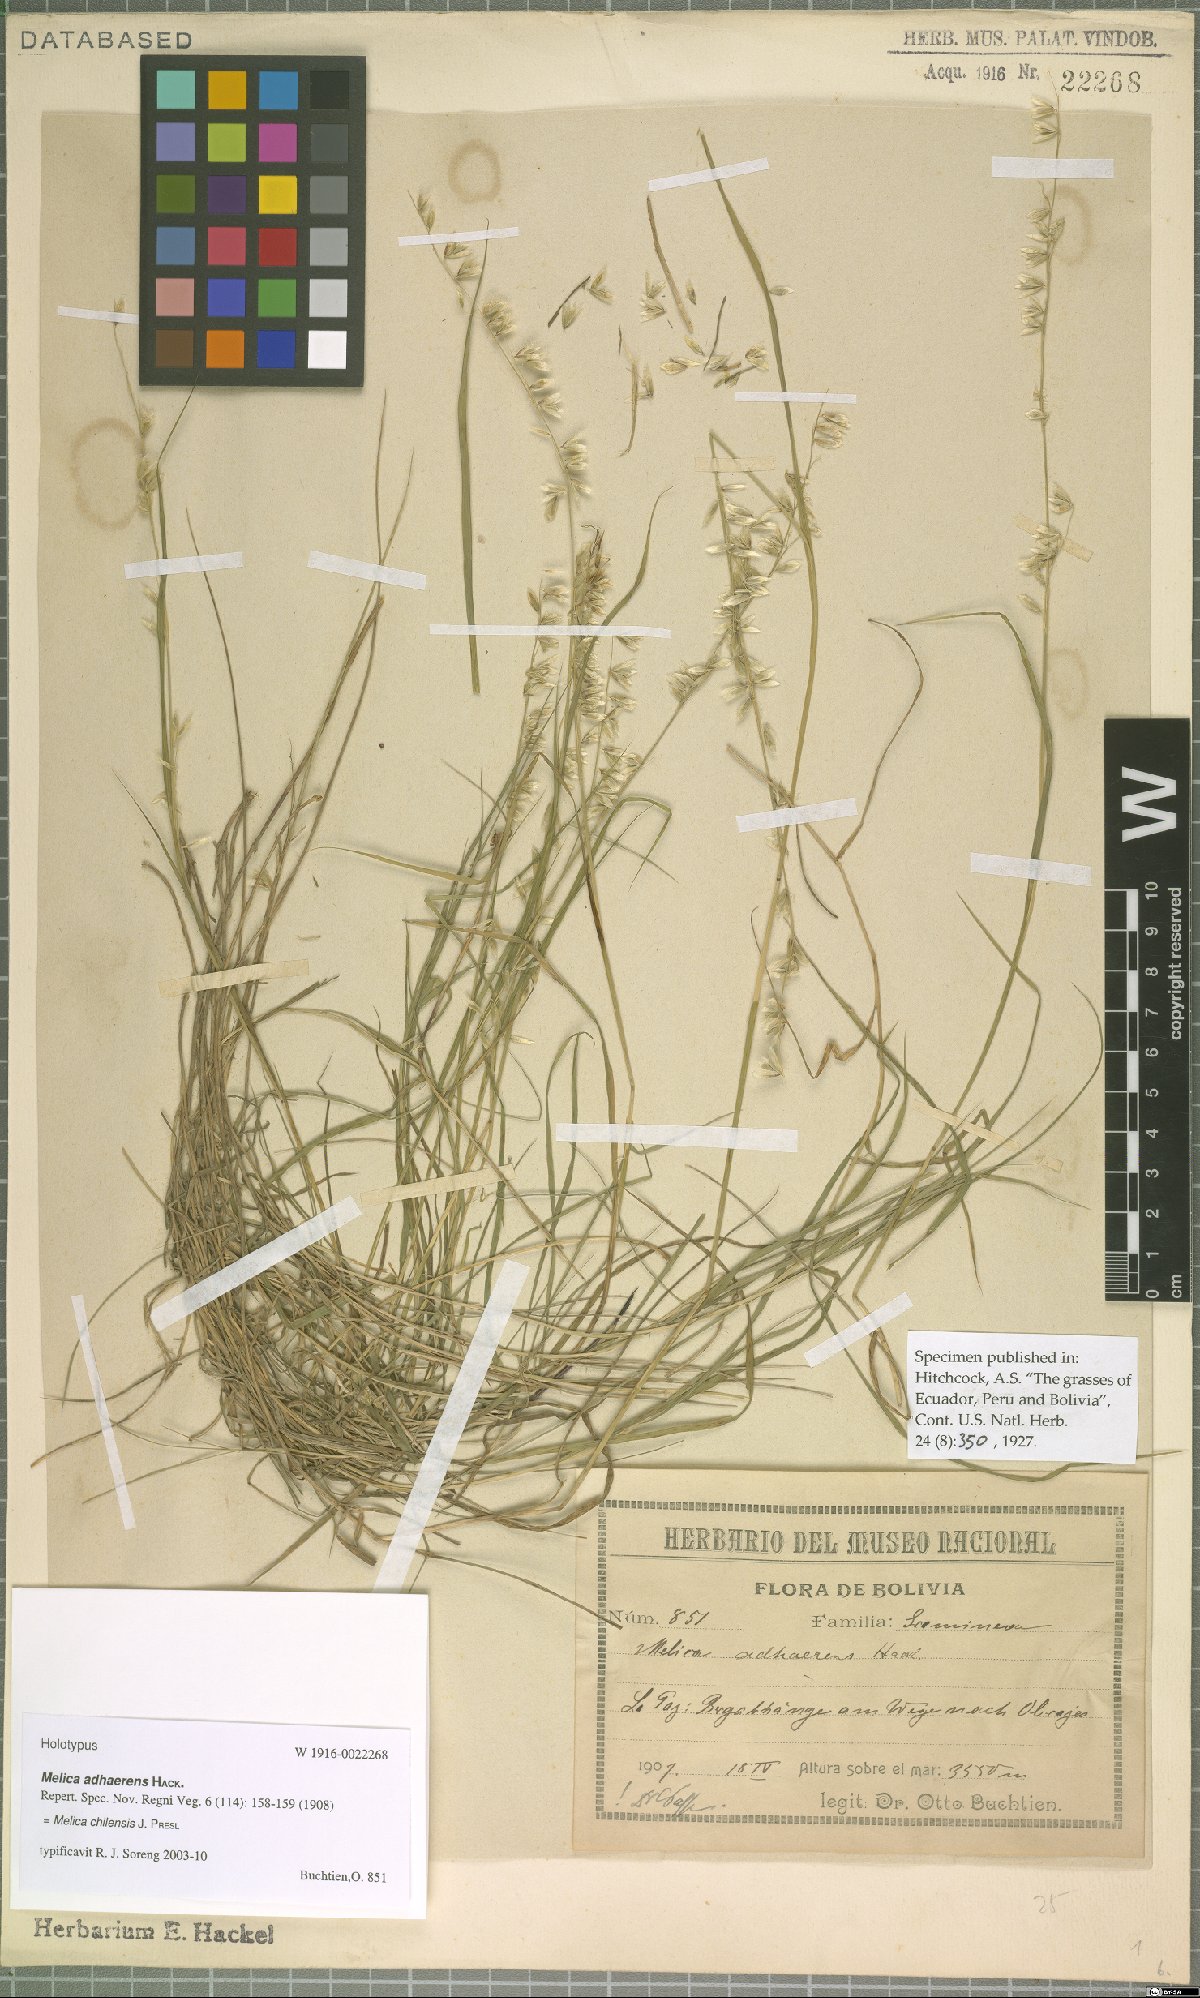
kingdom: Plantae
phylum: Tracheophyta
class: Liliopsida
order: Poales
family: Poaceae
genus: Melica
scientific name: Melica chilensis
